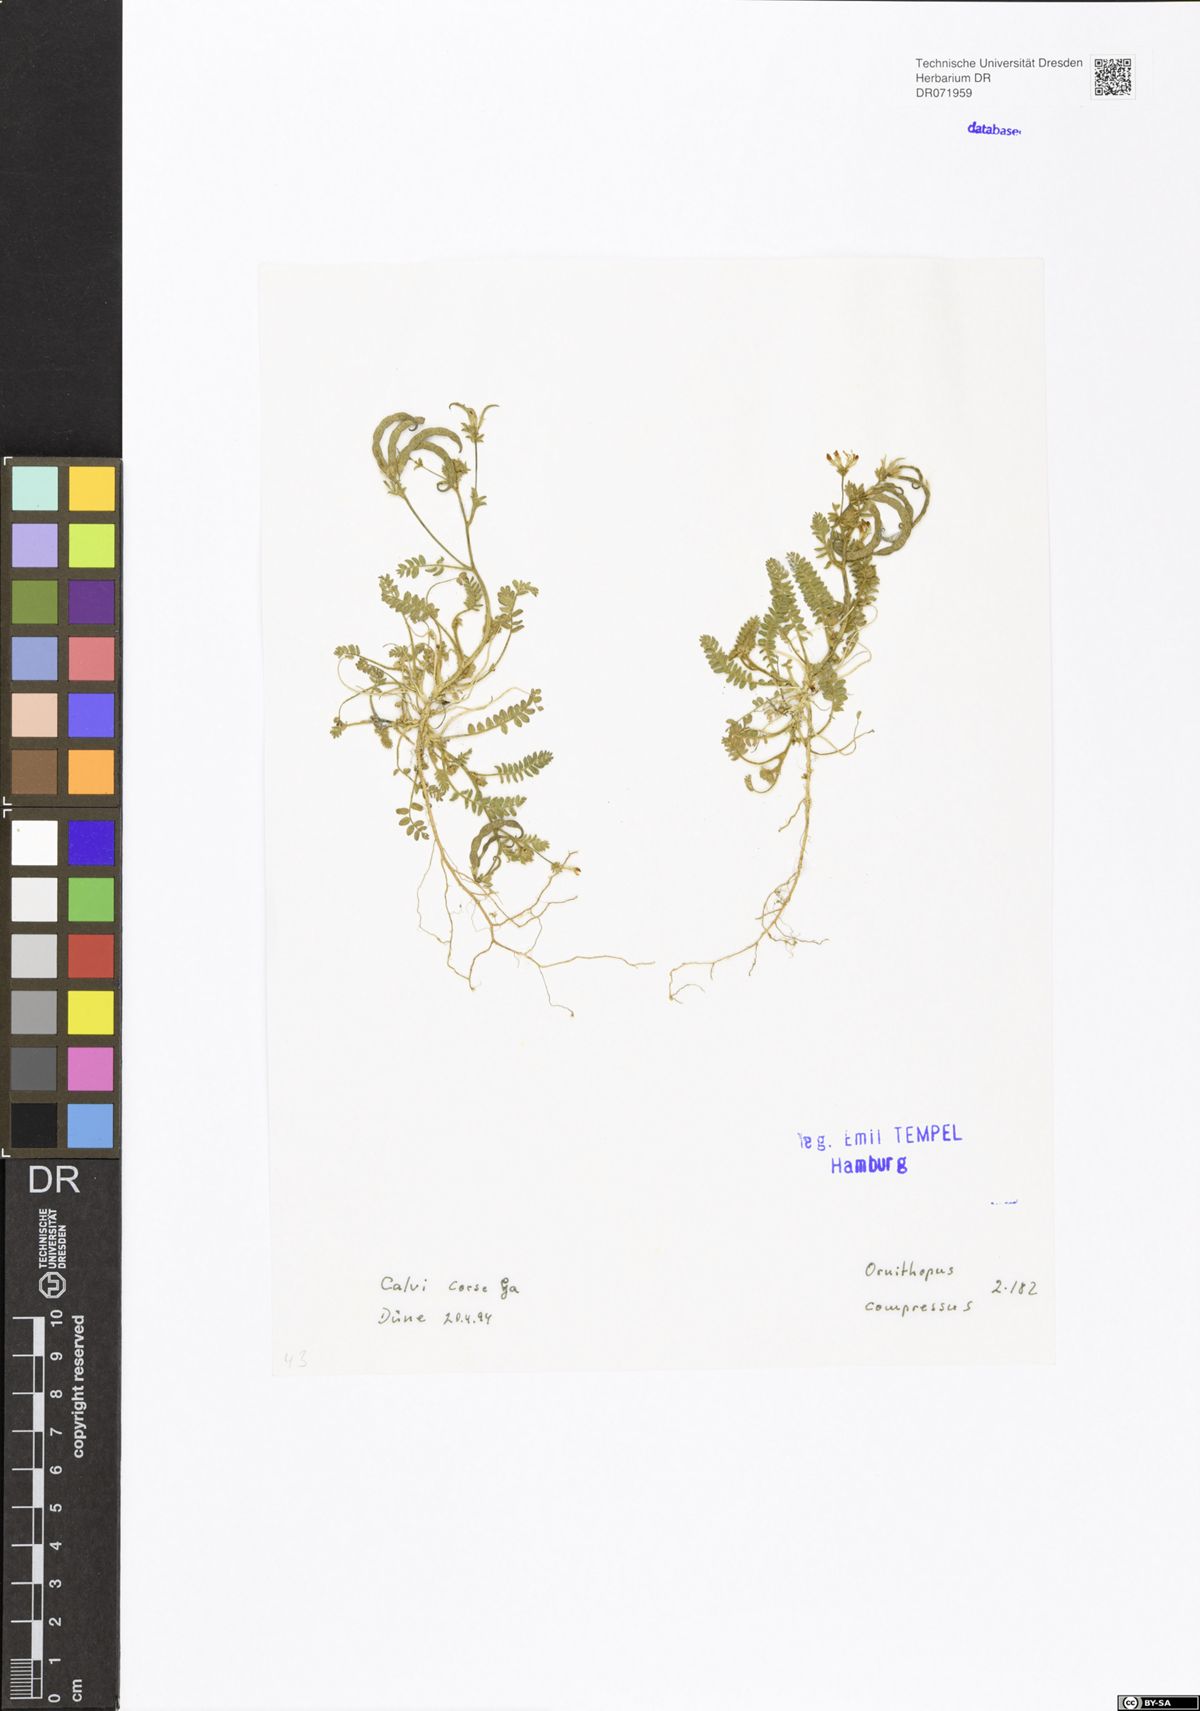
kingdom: Plantae
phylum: Tracheophyta
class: Magnoliopsida
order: Fabales
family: Fabaceae
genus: Ornithopus
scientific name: Ornithopus compressus
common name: Yellow serradella
